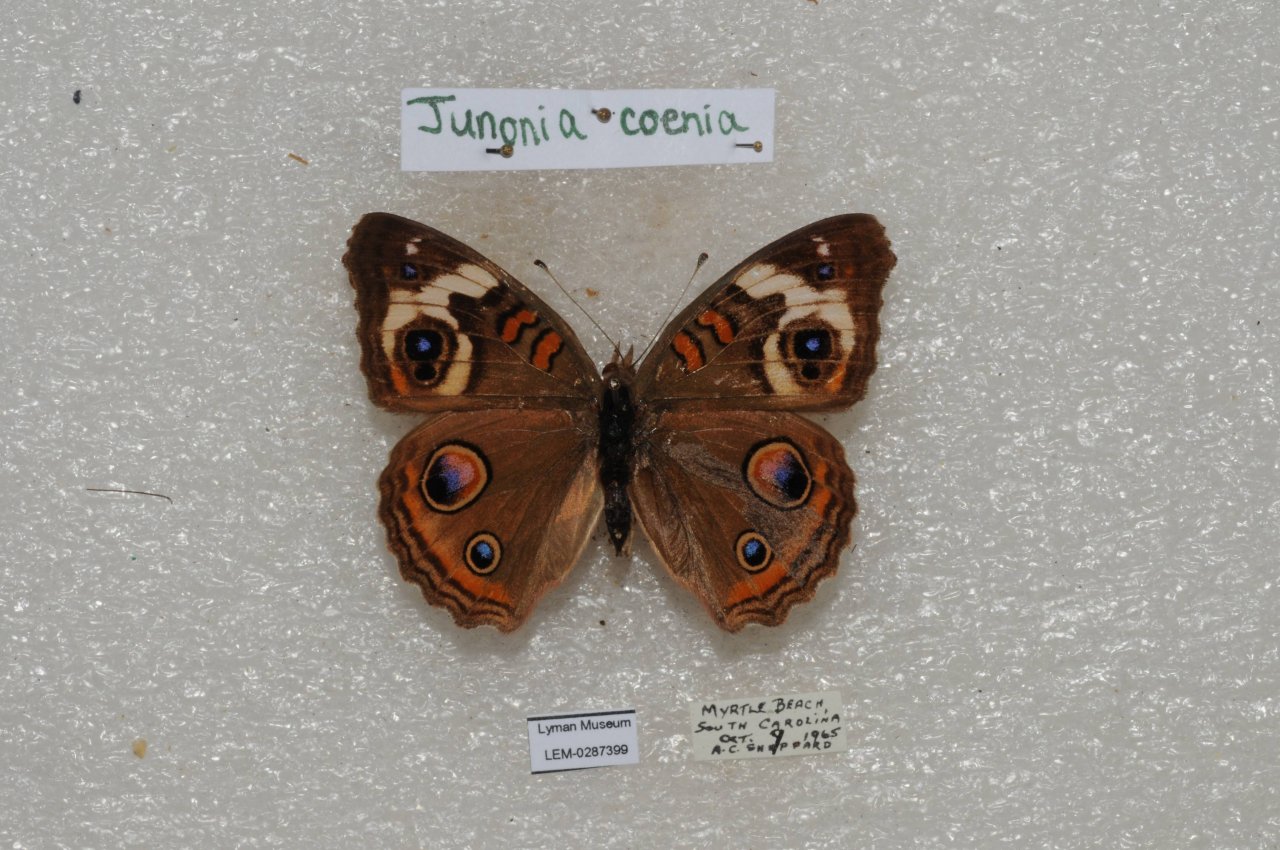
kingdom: Animalia
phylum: Arthropoda
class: Insecta
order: Lepidoptera
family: Nymphalidae
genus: Junonia
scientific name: Junonia coenia
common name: Common Buckeye
